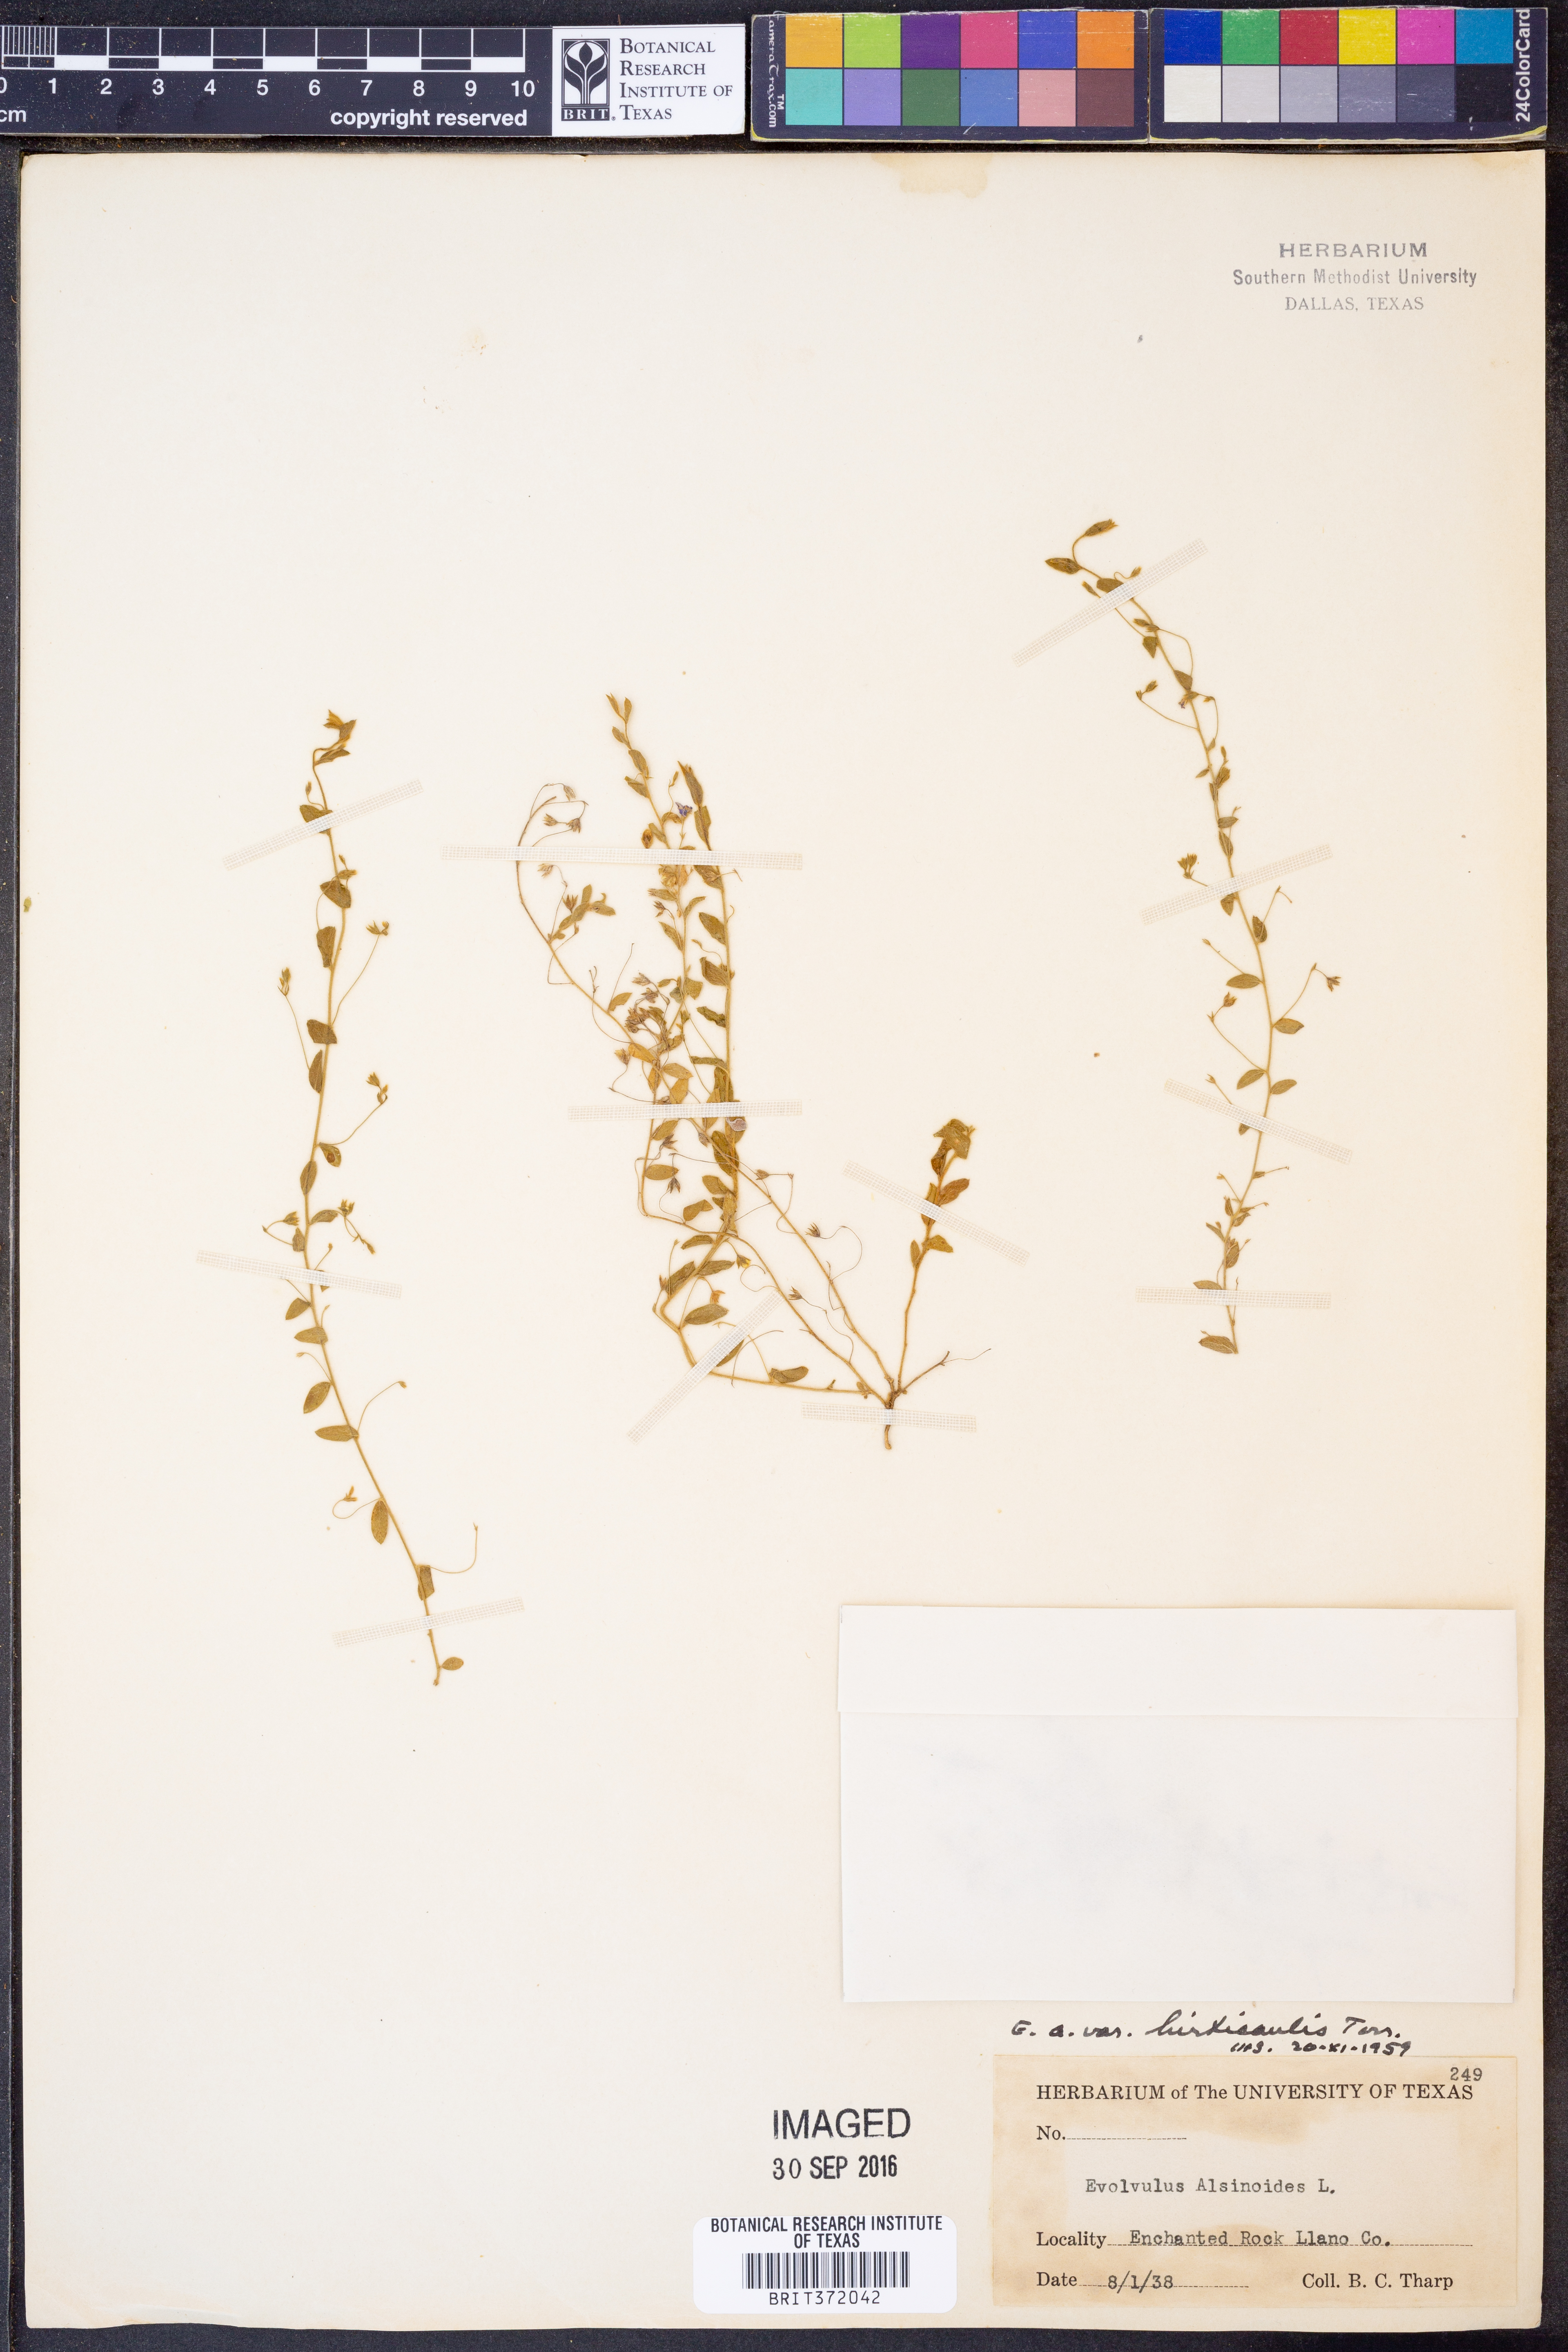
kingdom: Plantae
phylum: Tracheophyta
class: Magnoliopsida
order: Solanales
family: Convolvulaceae
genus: Evolvulus
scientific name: Evolvulus alsinoides
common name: Slender dwarf morning-glory
